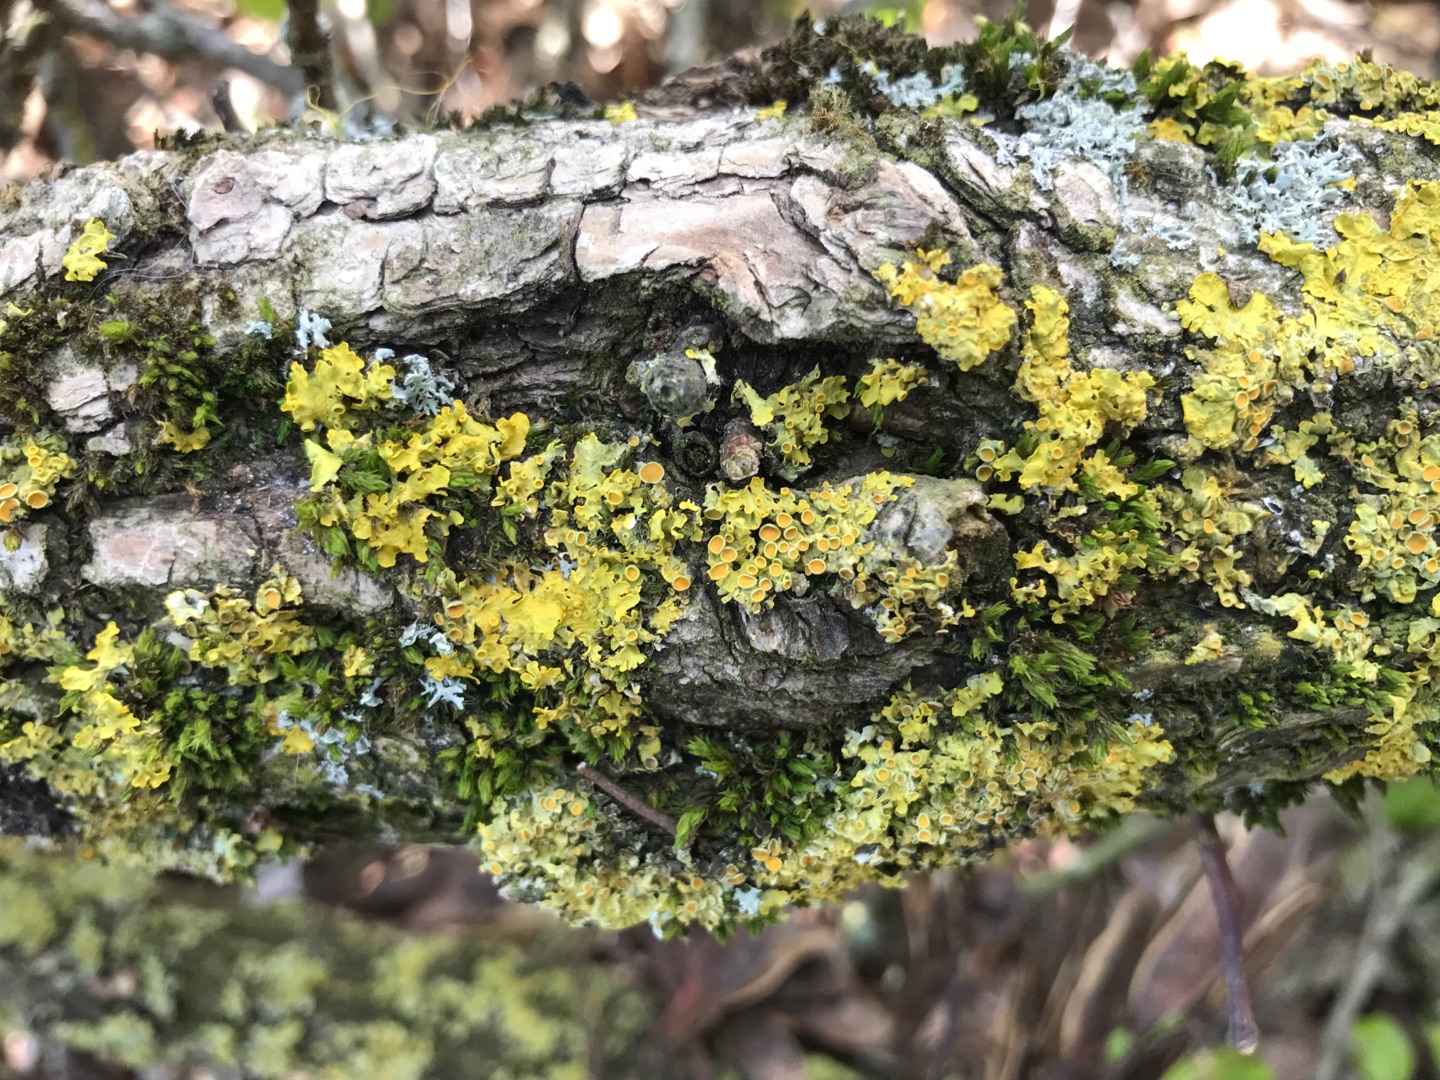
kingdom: Plantae
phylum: Bryophyta
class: Bryopsida
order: Orthotrichales
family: Orthotrichaceae
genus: Lewinskya
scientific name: Lewinskya affinis
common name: Almindelig furehætte
